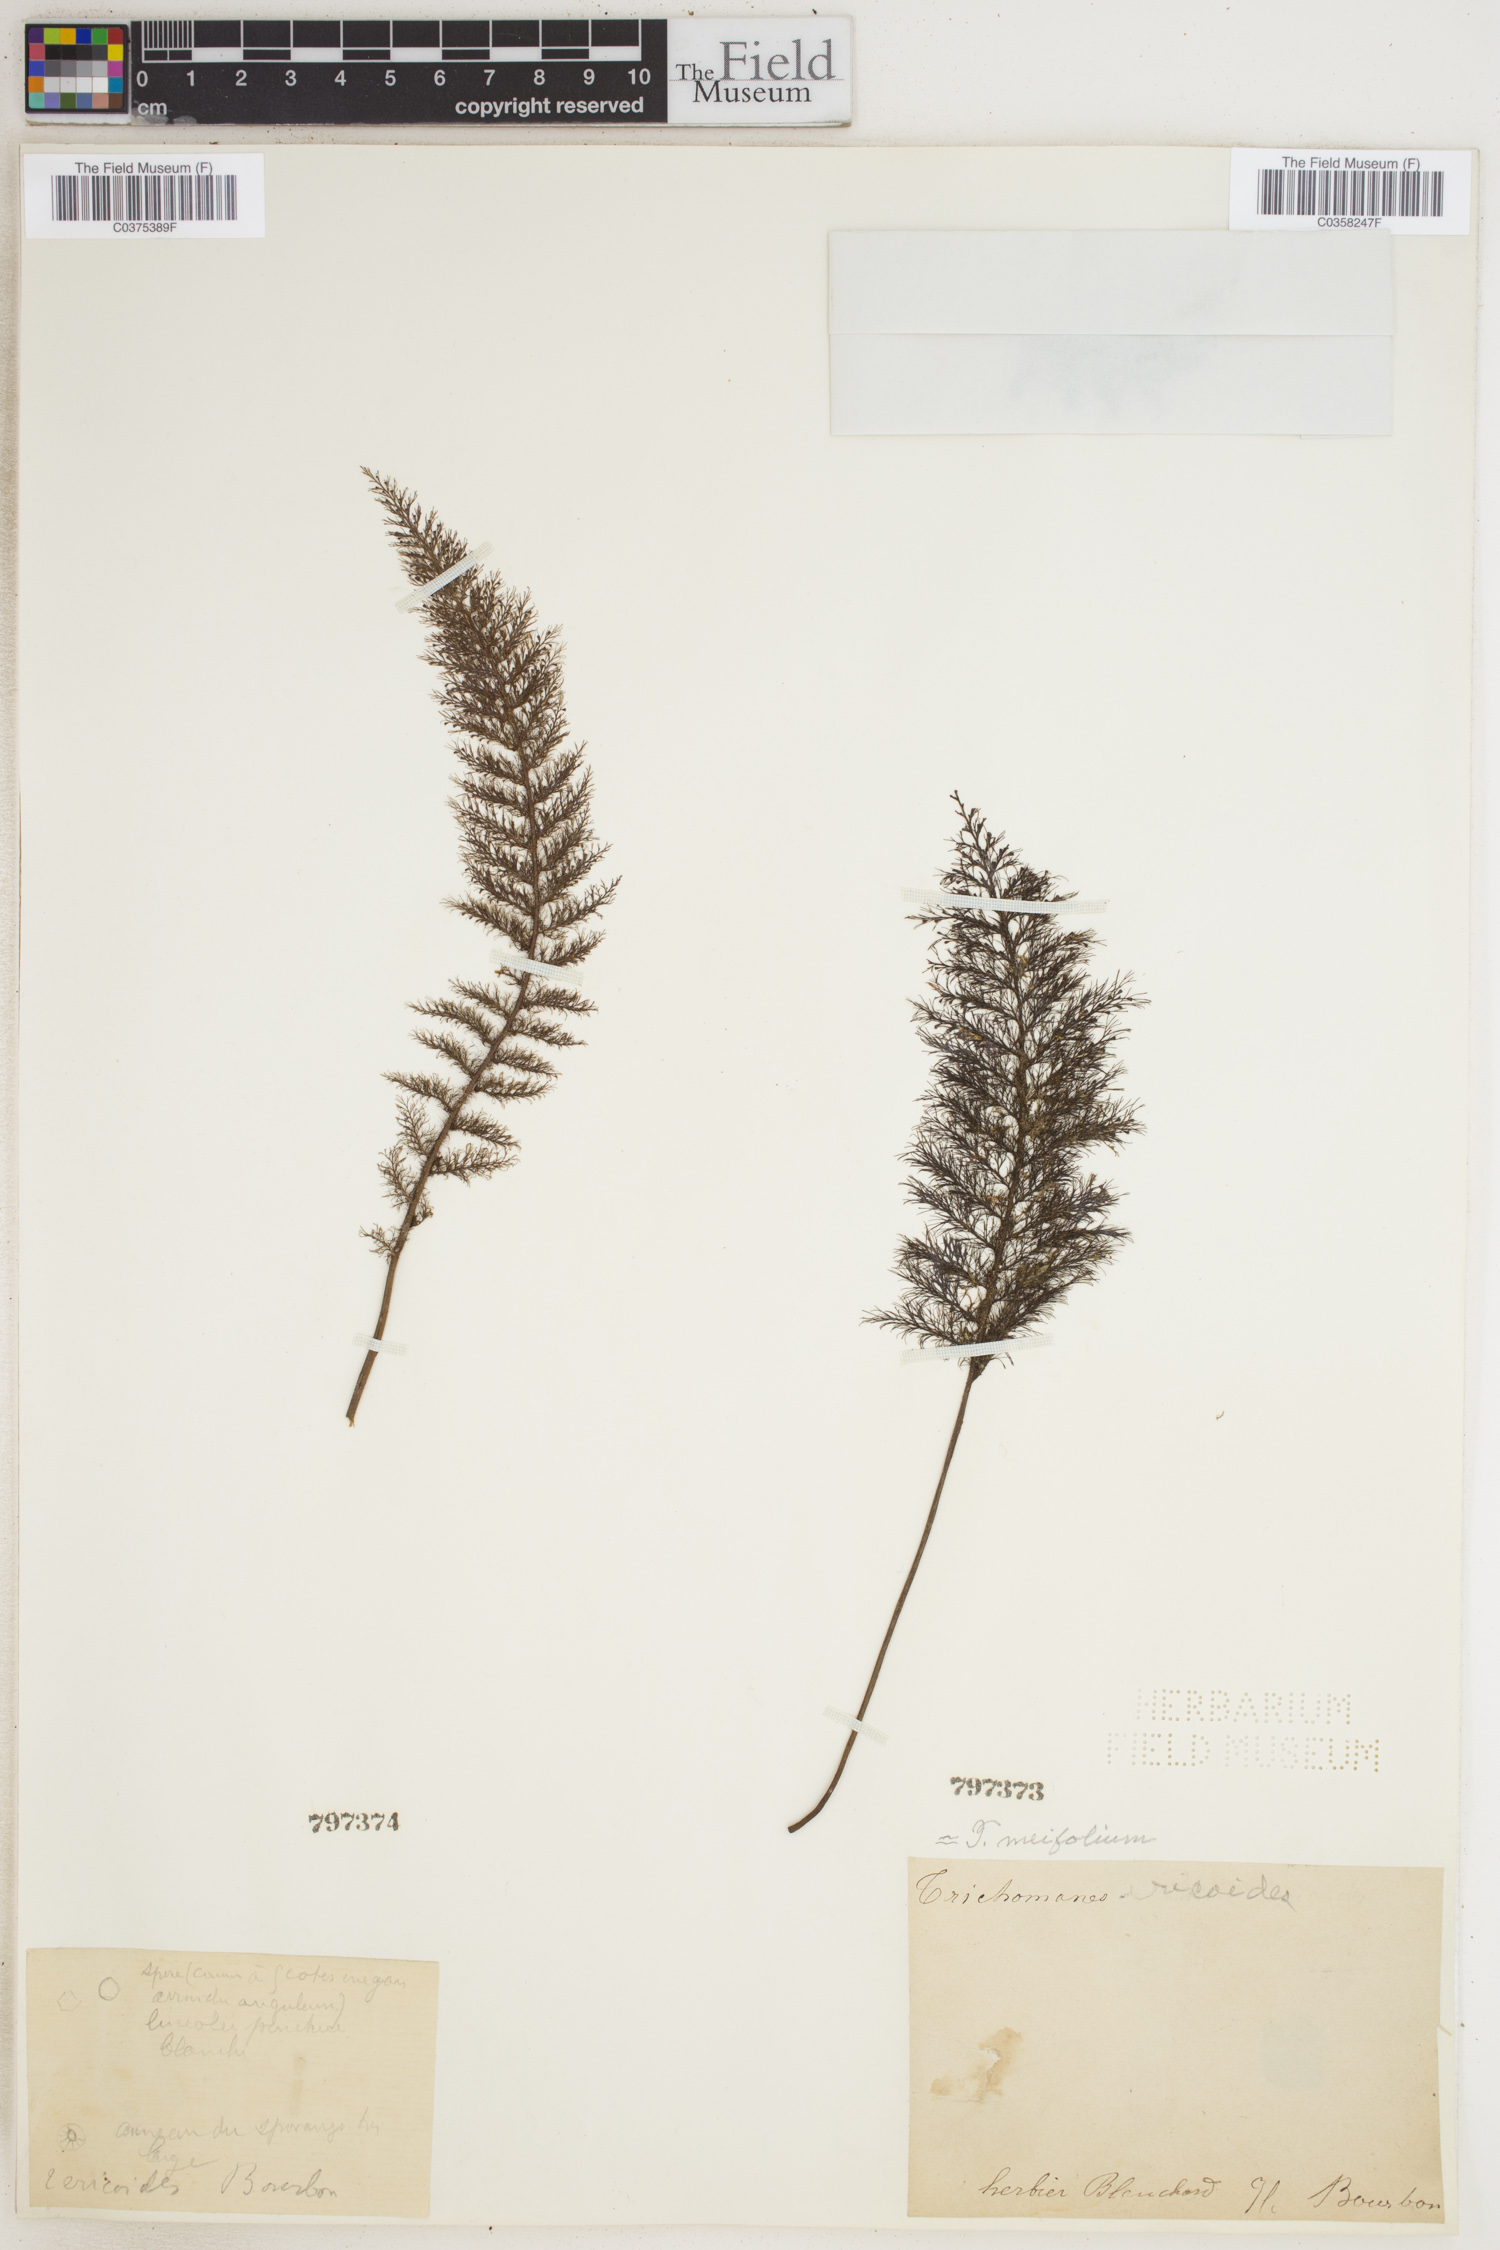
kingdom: Plantae
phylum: Tracheophyta
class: Polypodiopsida
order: Hymenophyllales
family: Hymenophyllaceae
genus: Abrodictyum
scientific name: Abrodictyum parviflorum
